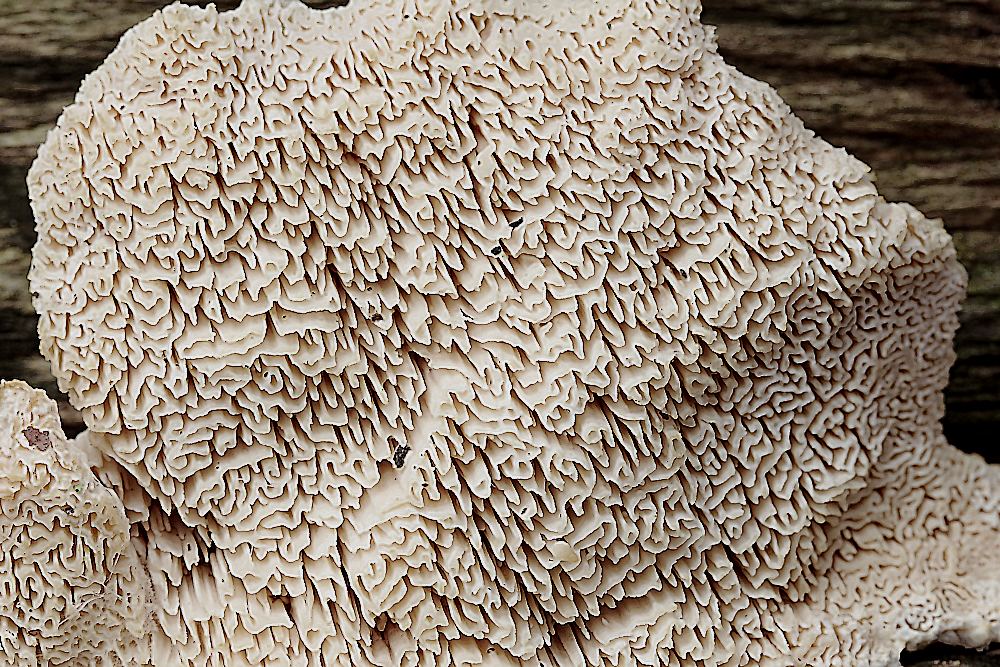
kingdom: Fungi
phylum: Basidiomycota
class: Agaricomycetes
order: Polyporales
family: Cerrenaceae
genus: Pseudospongipellis
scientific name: Pseudospongipellis delectans
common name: labyrint-skumporesvamp
